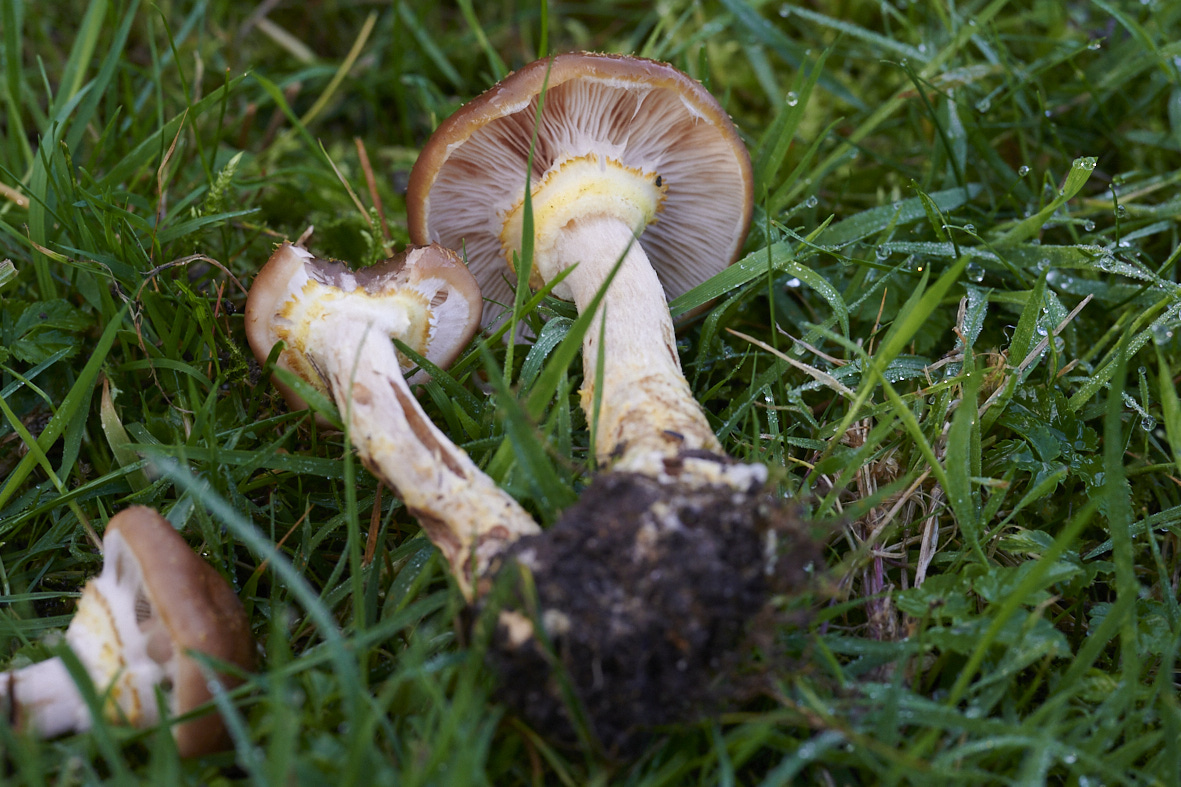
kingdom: Fungi
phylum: Basidiomycota
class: Agaricomycetes
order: Agaricales
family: Physalacriaceae
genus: Armillaria
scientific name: Armillaria lutea
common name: køllestokket honningsvamp
